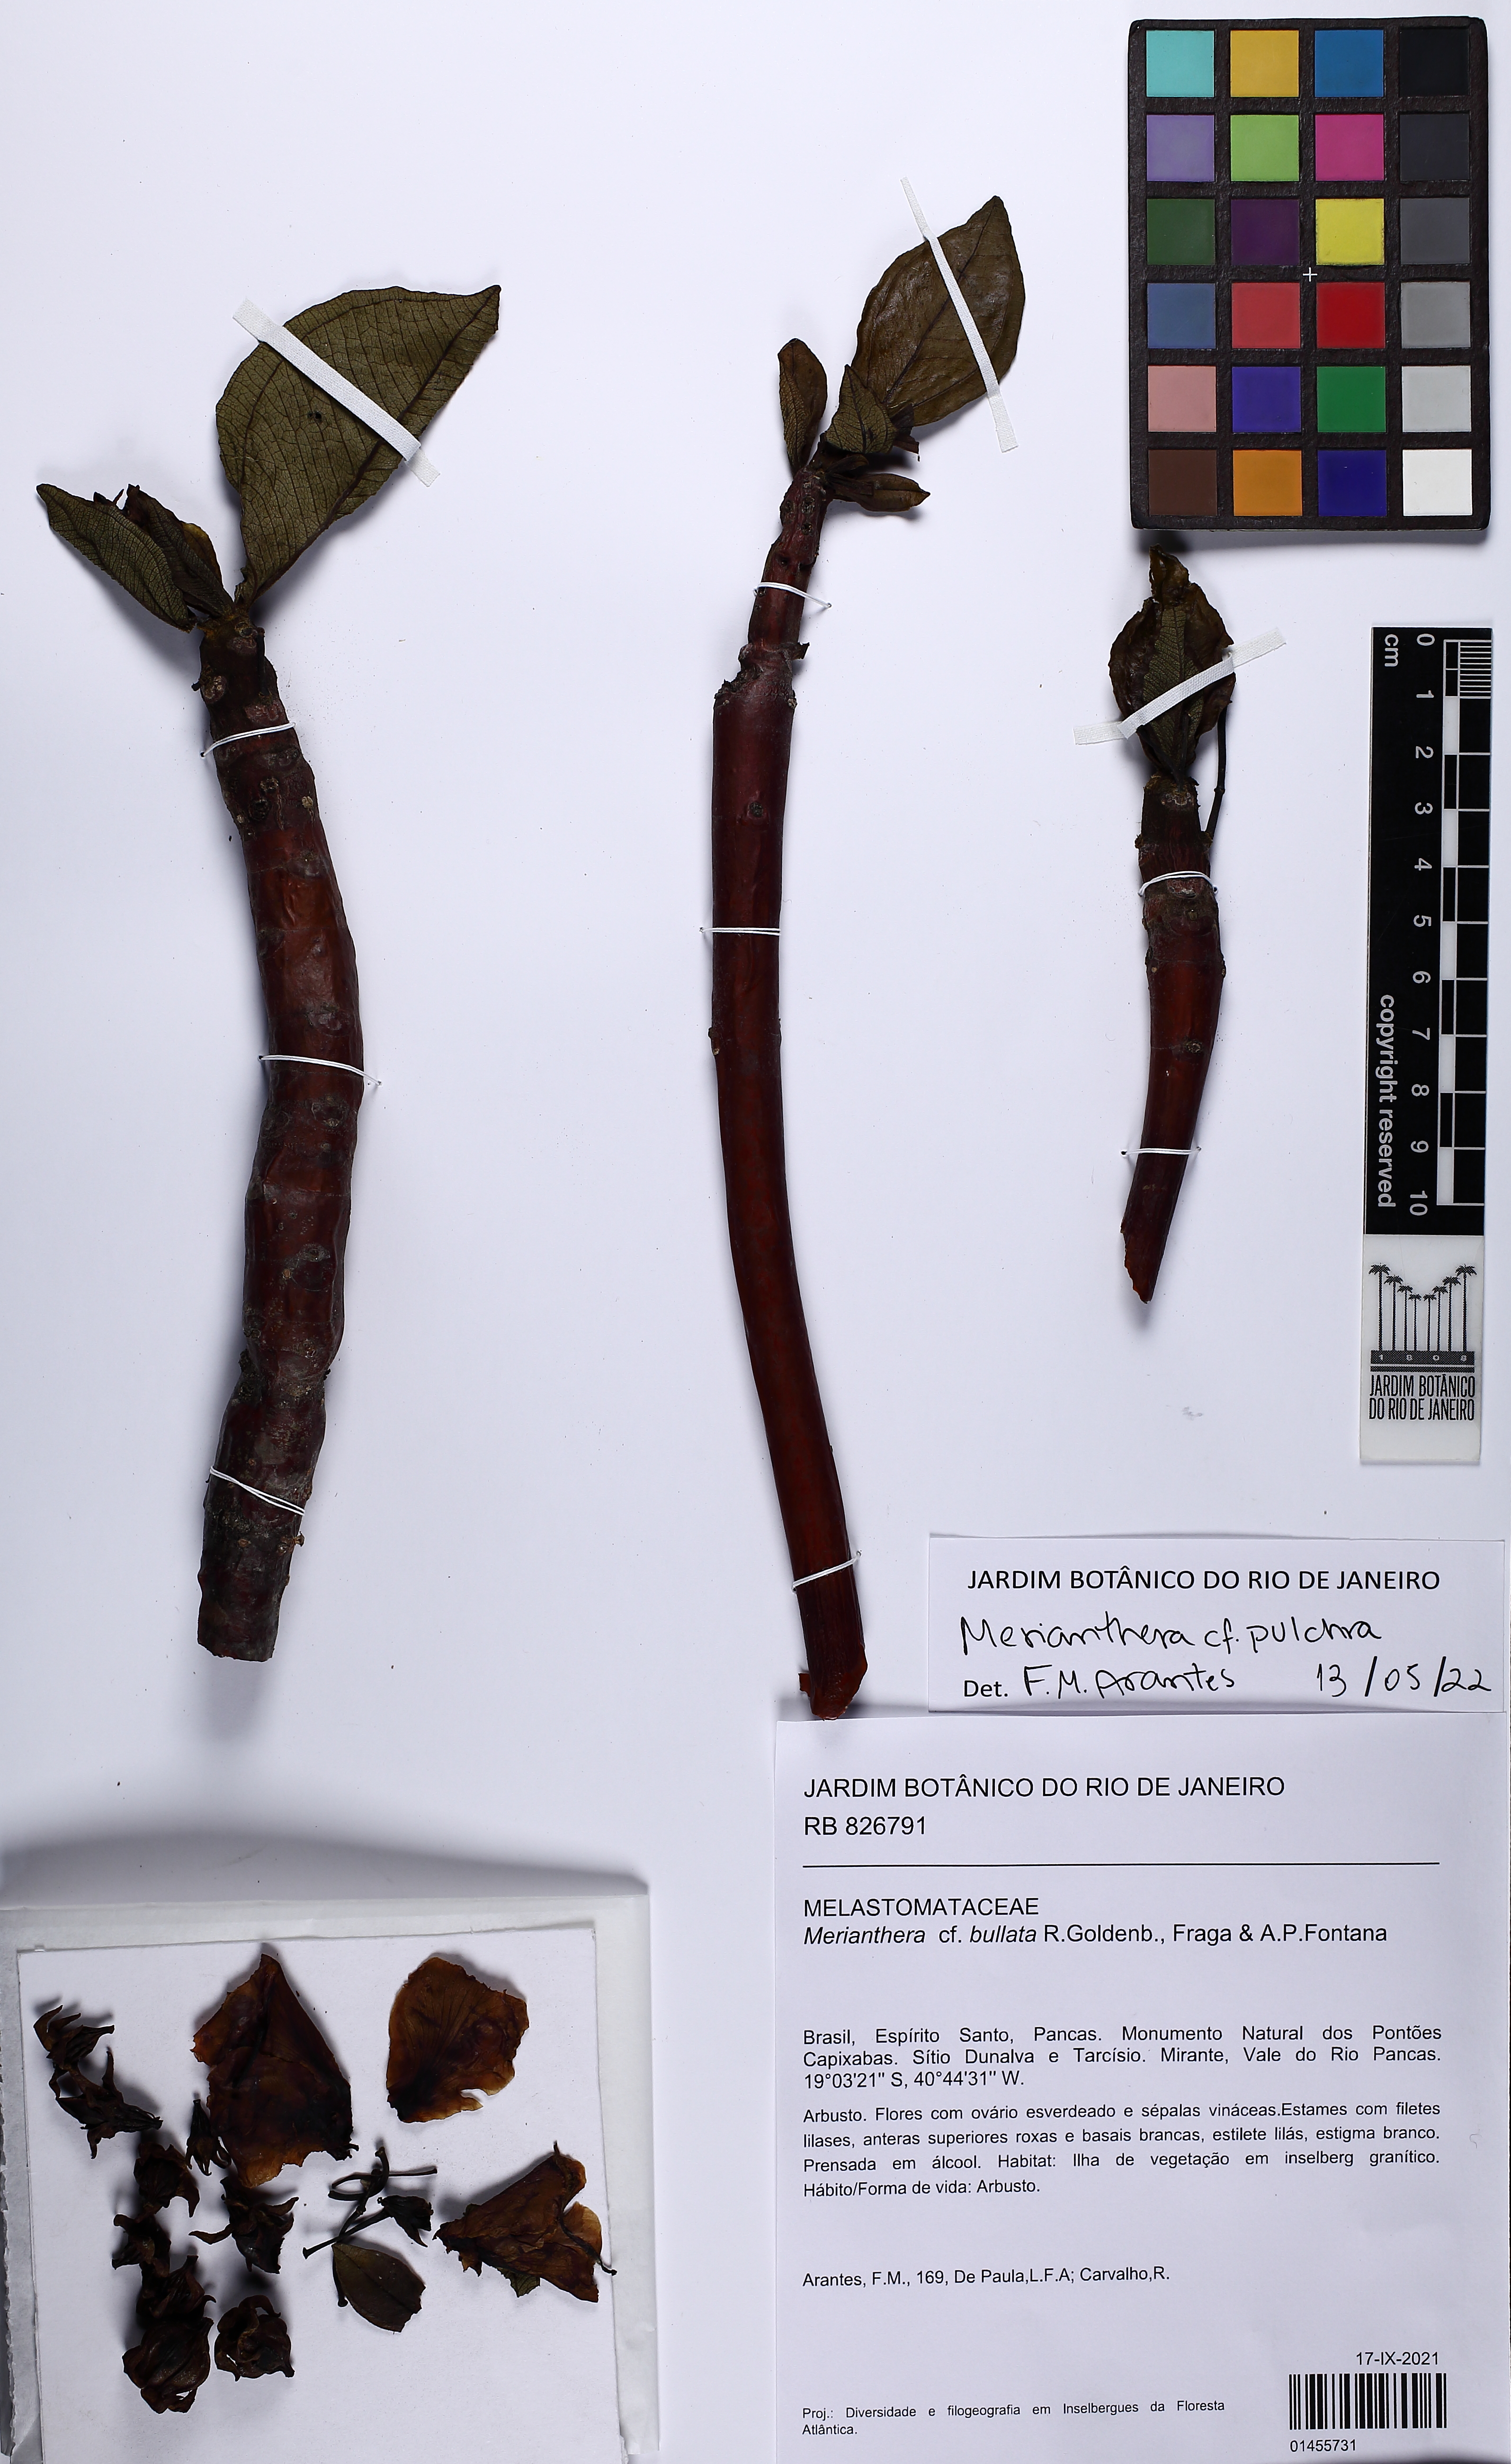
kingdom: Plantae
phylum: Tracheophyta
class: Magnoliopsida
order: Myrtales
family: Melastomataceae
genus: Merianthera
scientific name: Merianthera pulchra
